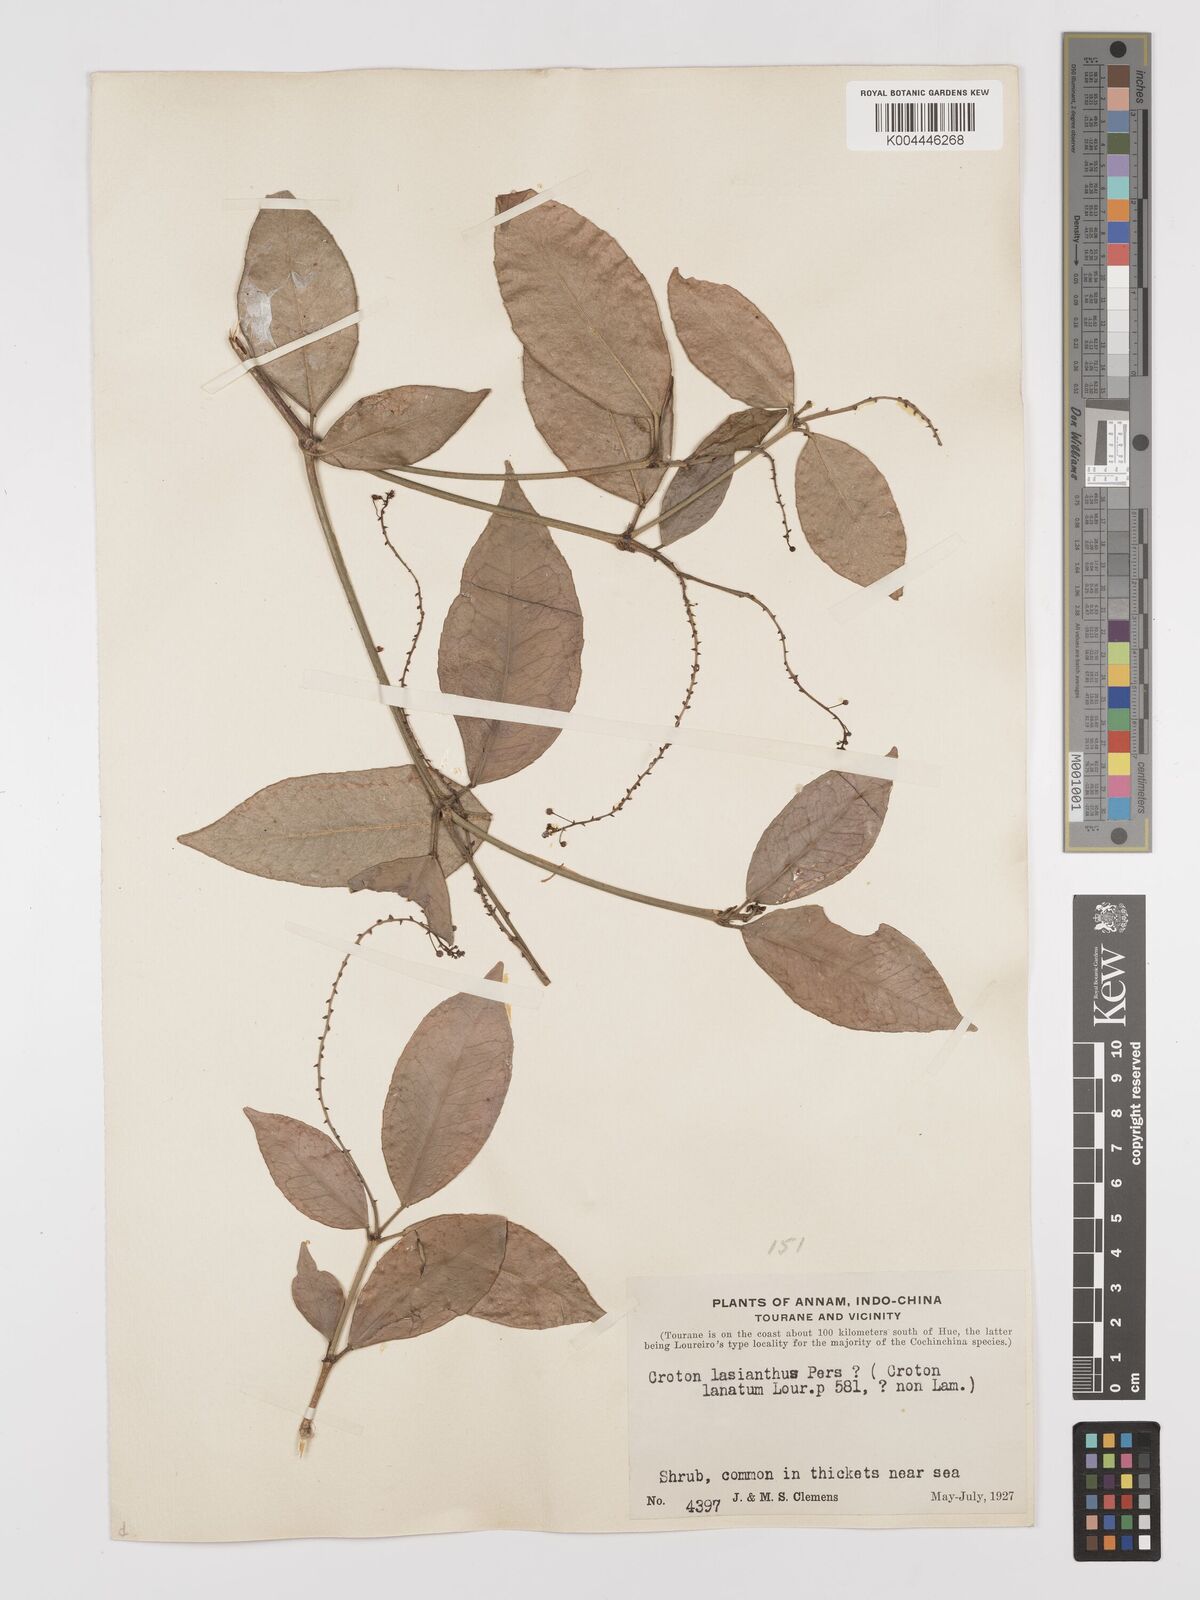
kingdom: Plantae
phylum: Tracheophyta
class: Magnoliopsida
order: Malpighiales
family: Euphorbiaceae
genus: Croton
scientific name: Croton laniflorus
